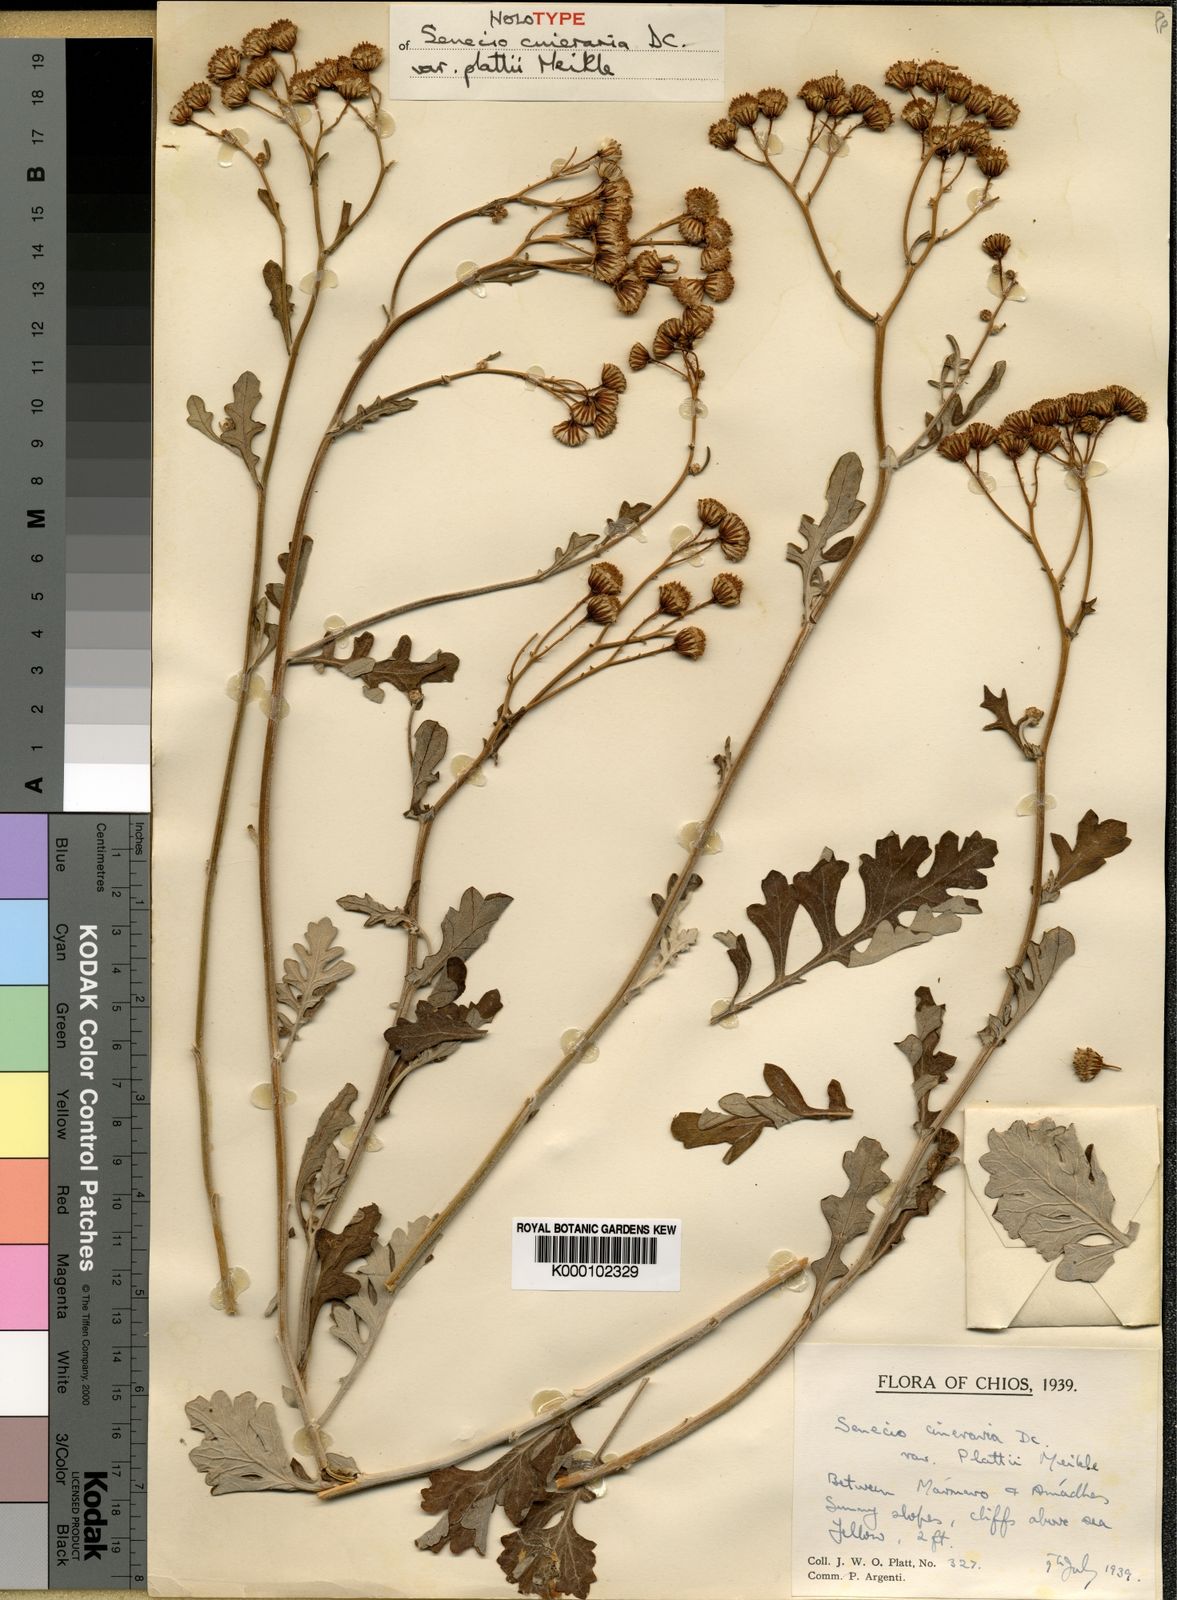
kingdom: Plantae
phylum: Tracheophyta
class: Magnoliopsida
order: Asterales
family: Asteraceae
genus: Jacobaea
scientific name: Jacobaea maritima
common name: Silver ragwort
